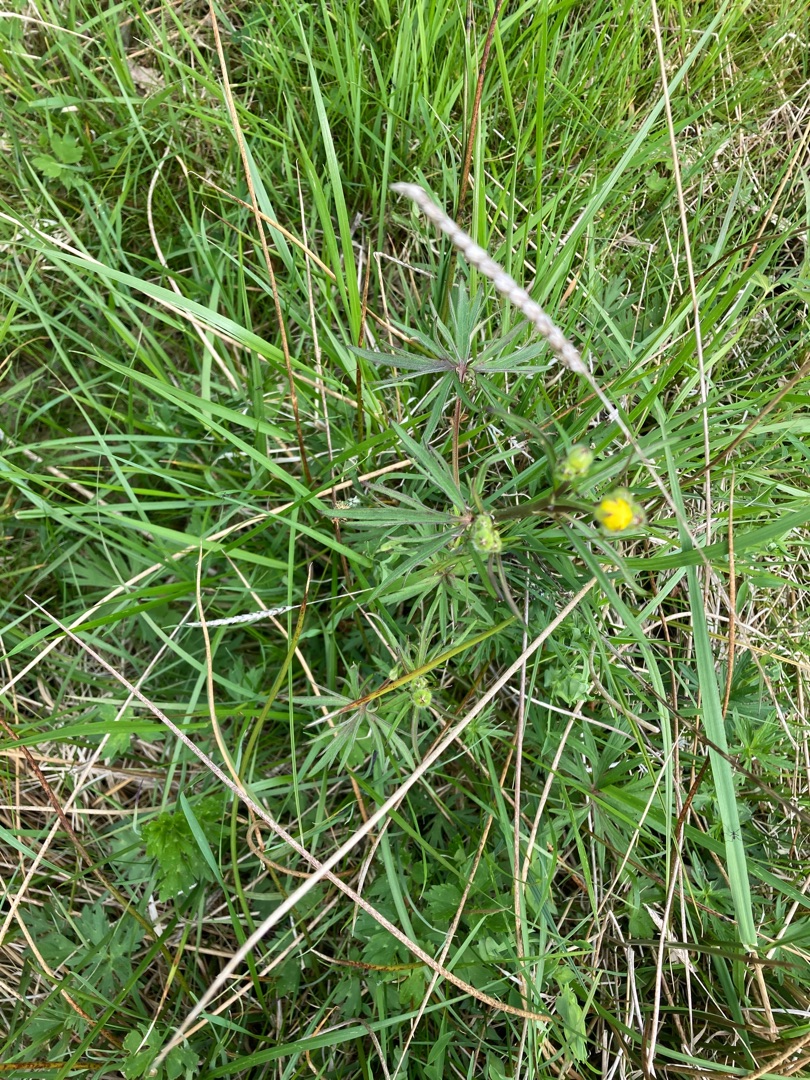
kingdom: Plantae
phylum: Tracheophyta
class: Magnoliopsida
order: Ranunculales
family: Ranunculaceae
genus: Ranunculus
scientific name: Ranunculus acris
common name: Bidende ranunkel
